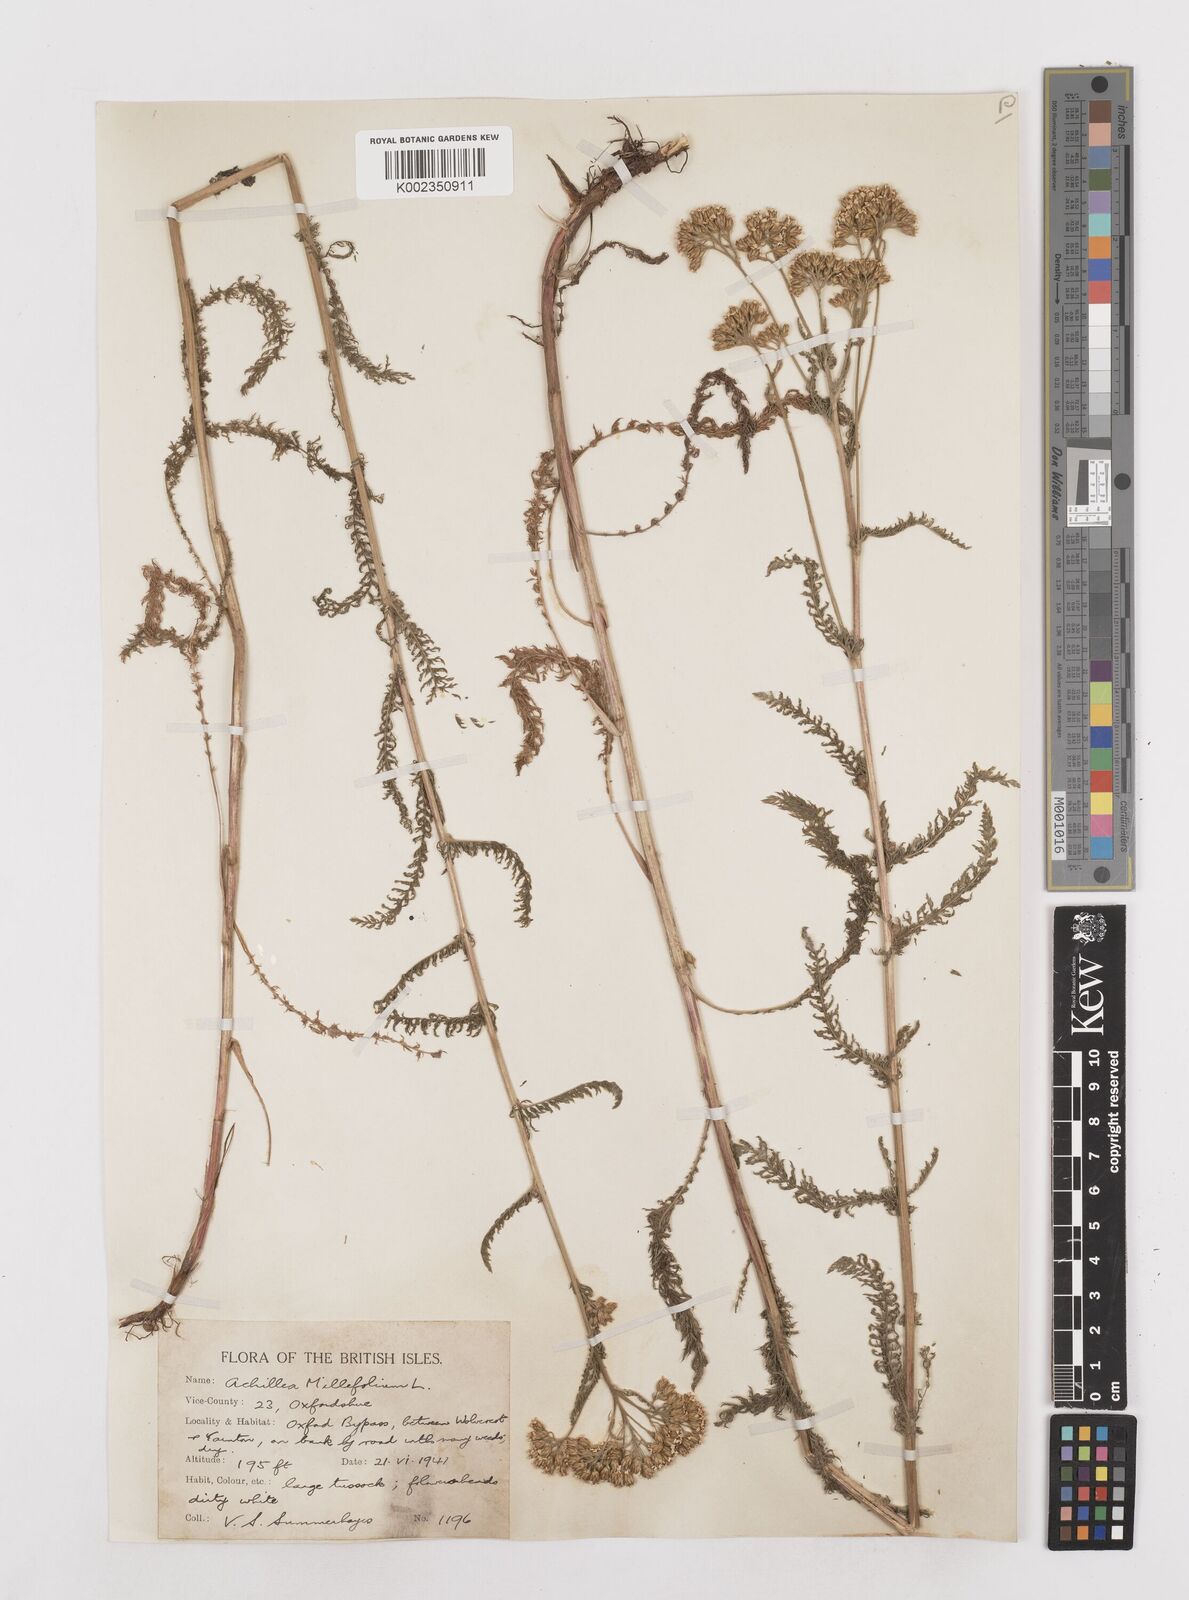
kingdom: Plantae
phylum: Tracheophyta
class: Magnoliopsida
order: Asterales
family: Asteraceae
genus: Achillea
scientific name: Achillea millefolium
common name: Yarrow
